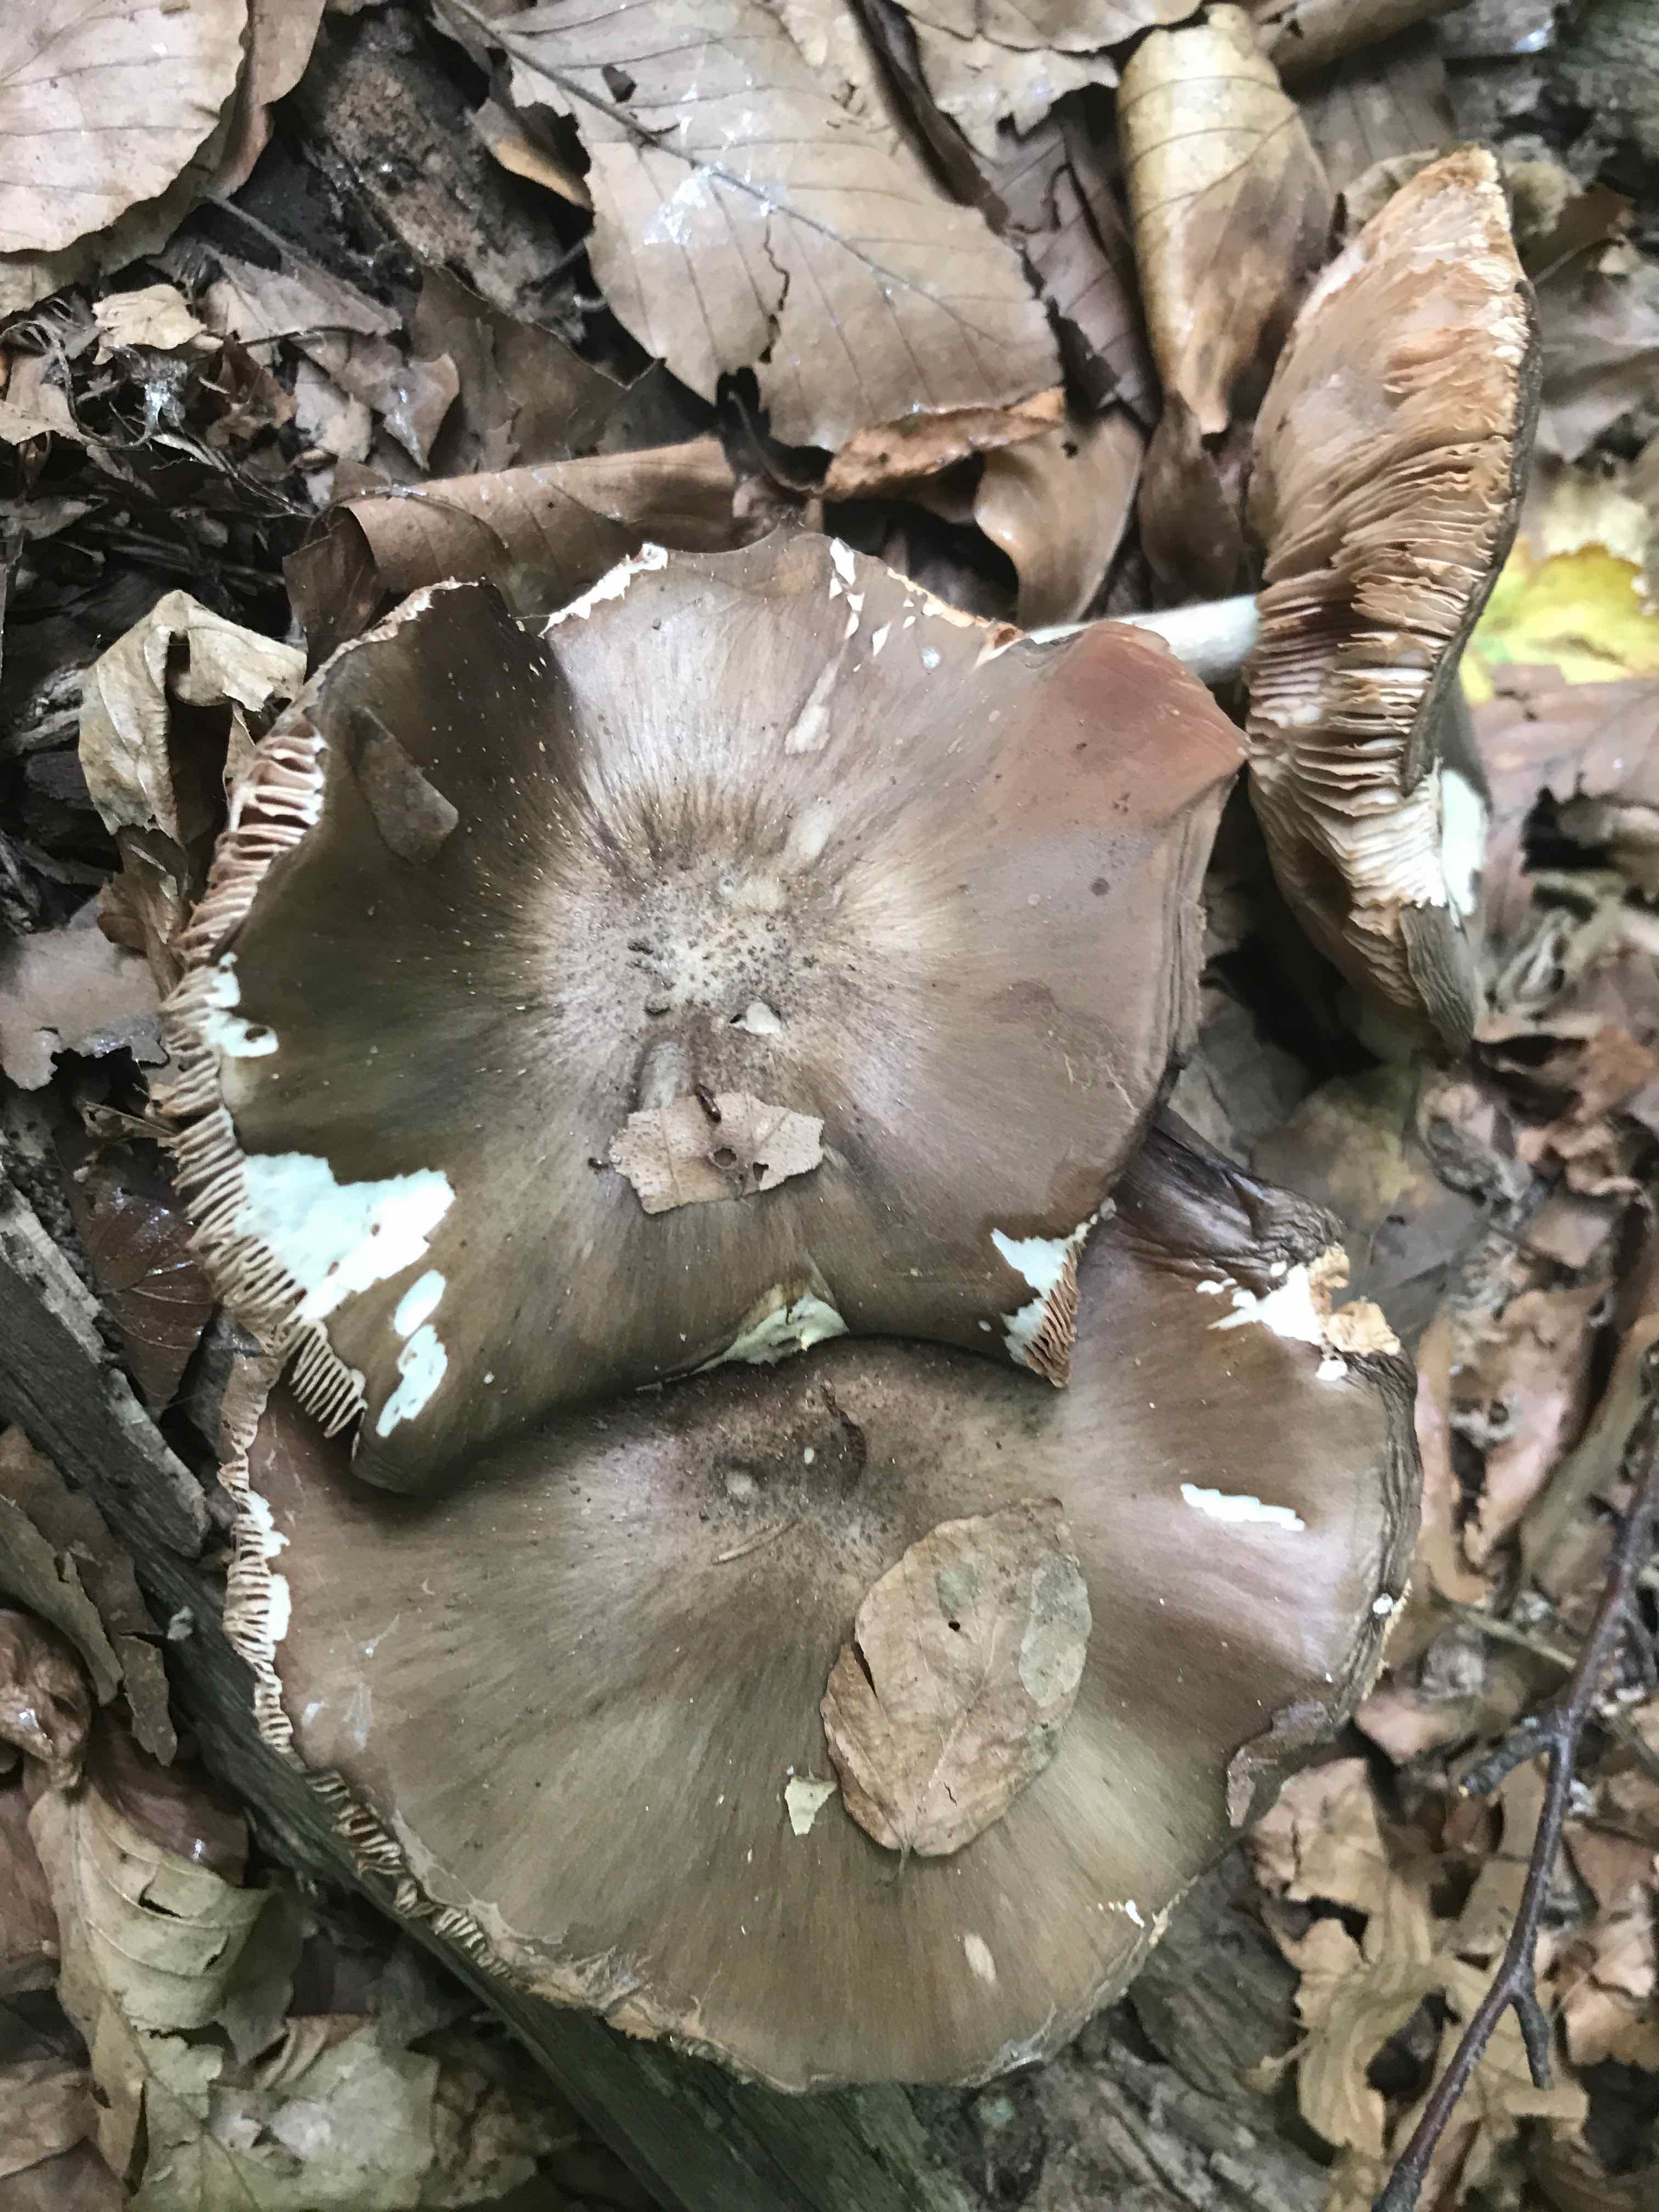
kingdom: Fungi
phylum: Basidiomycota
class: Agaricomycetes
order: Agaricales
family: Pluteaceae
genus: Pluteus
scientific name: Pluteus cervinus
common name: sodfarvet skærmhat
